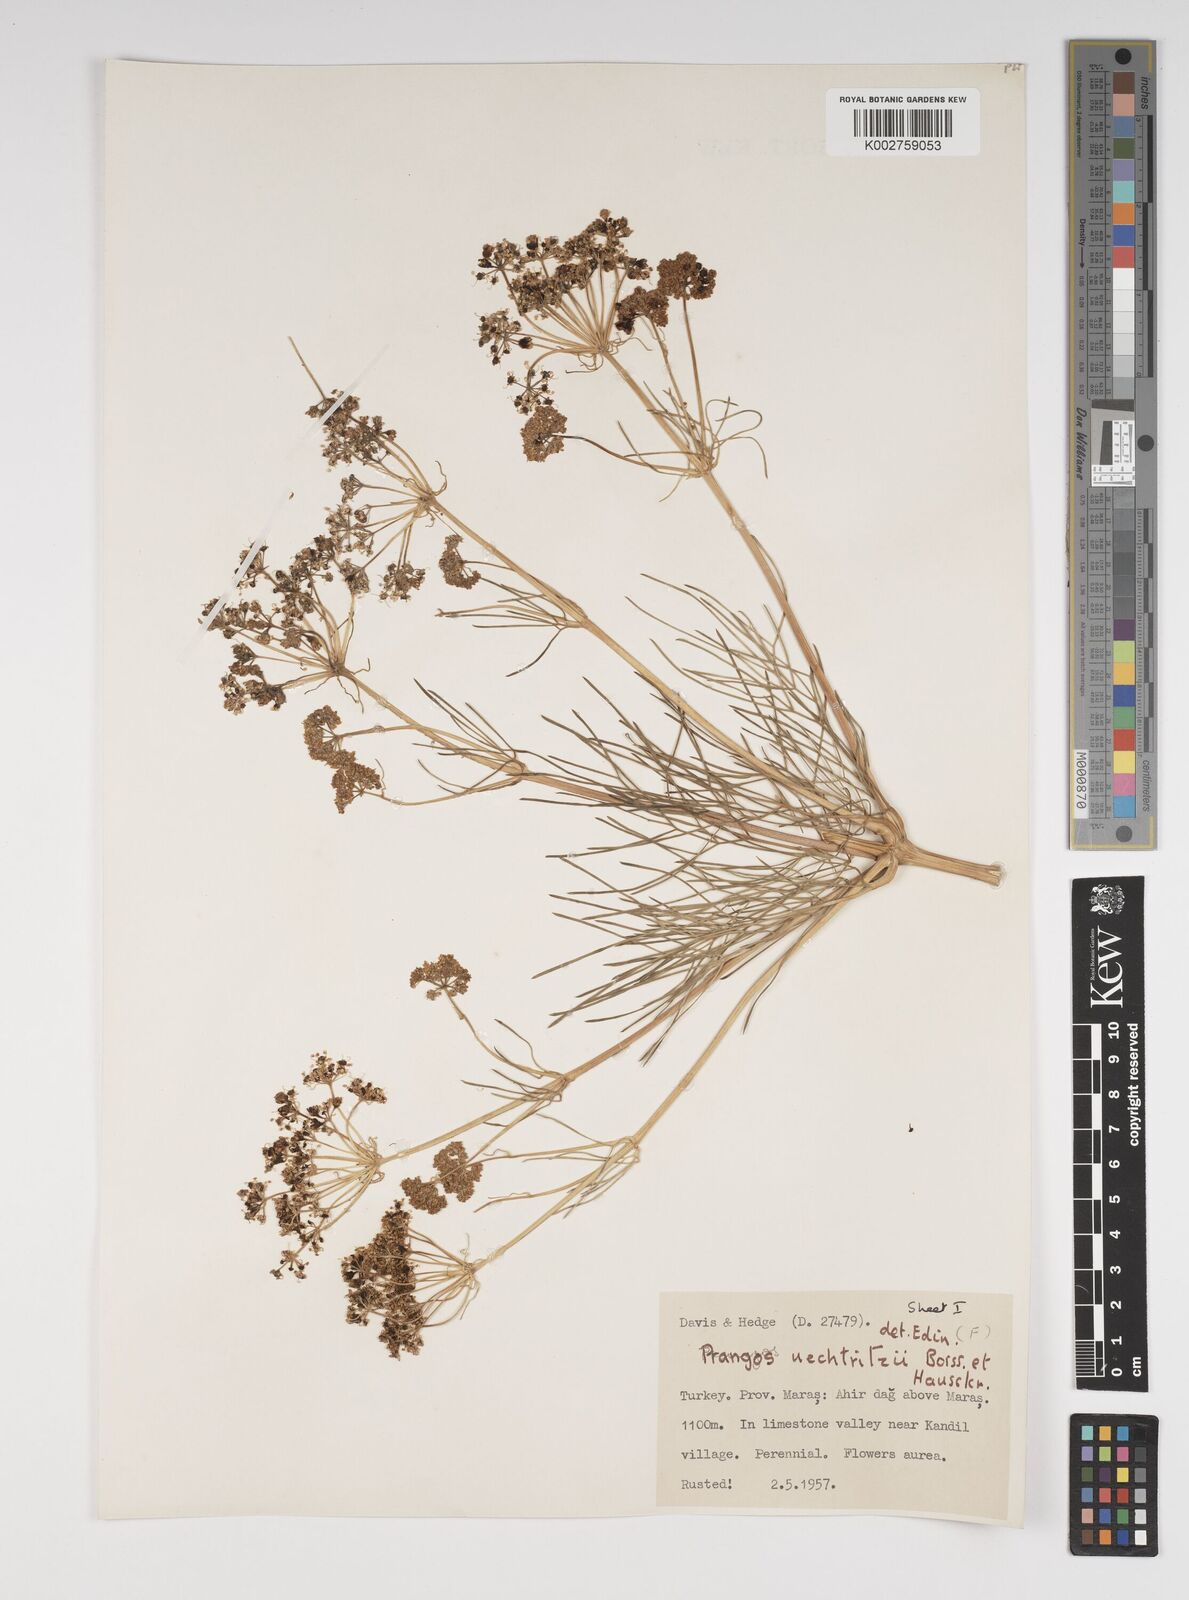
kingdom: Plantae
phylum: Tracheophyta
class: Magnoliopsida
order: Apiales
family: Apiaceae
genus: Prangos
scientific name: Prangos uechtritzii
